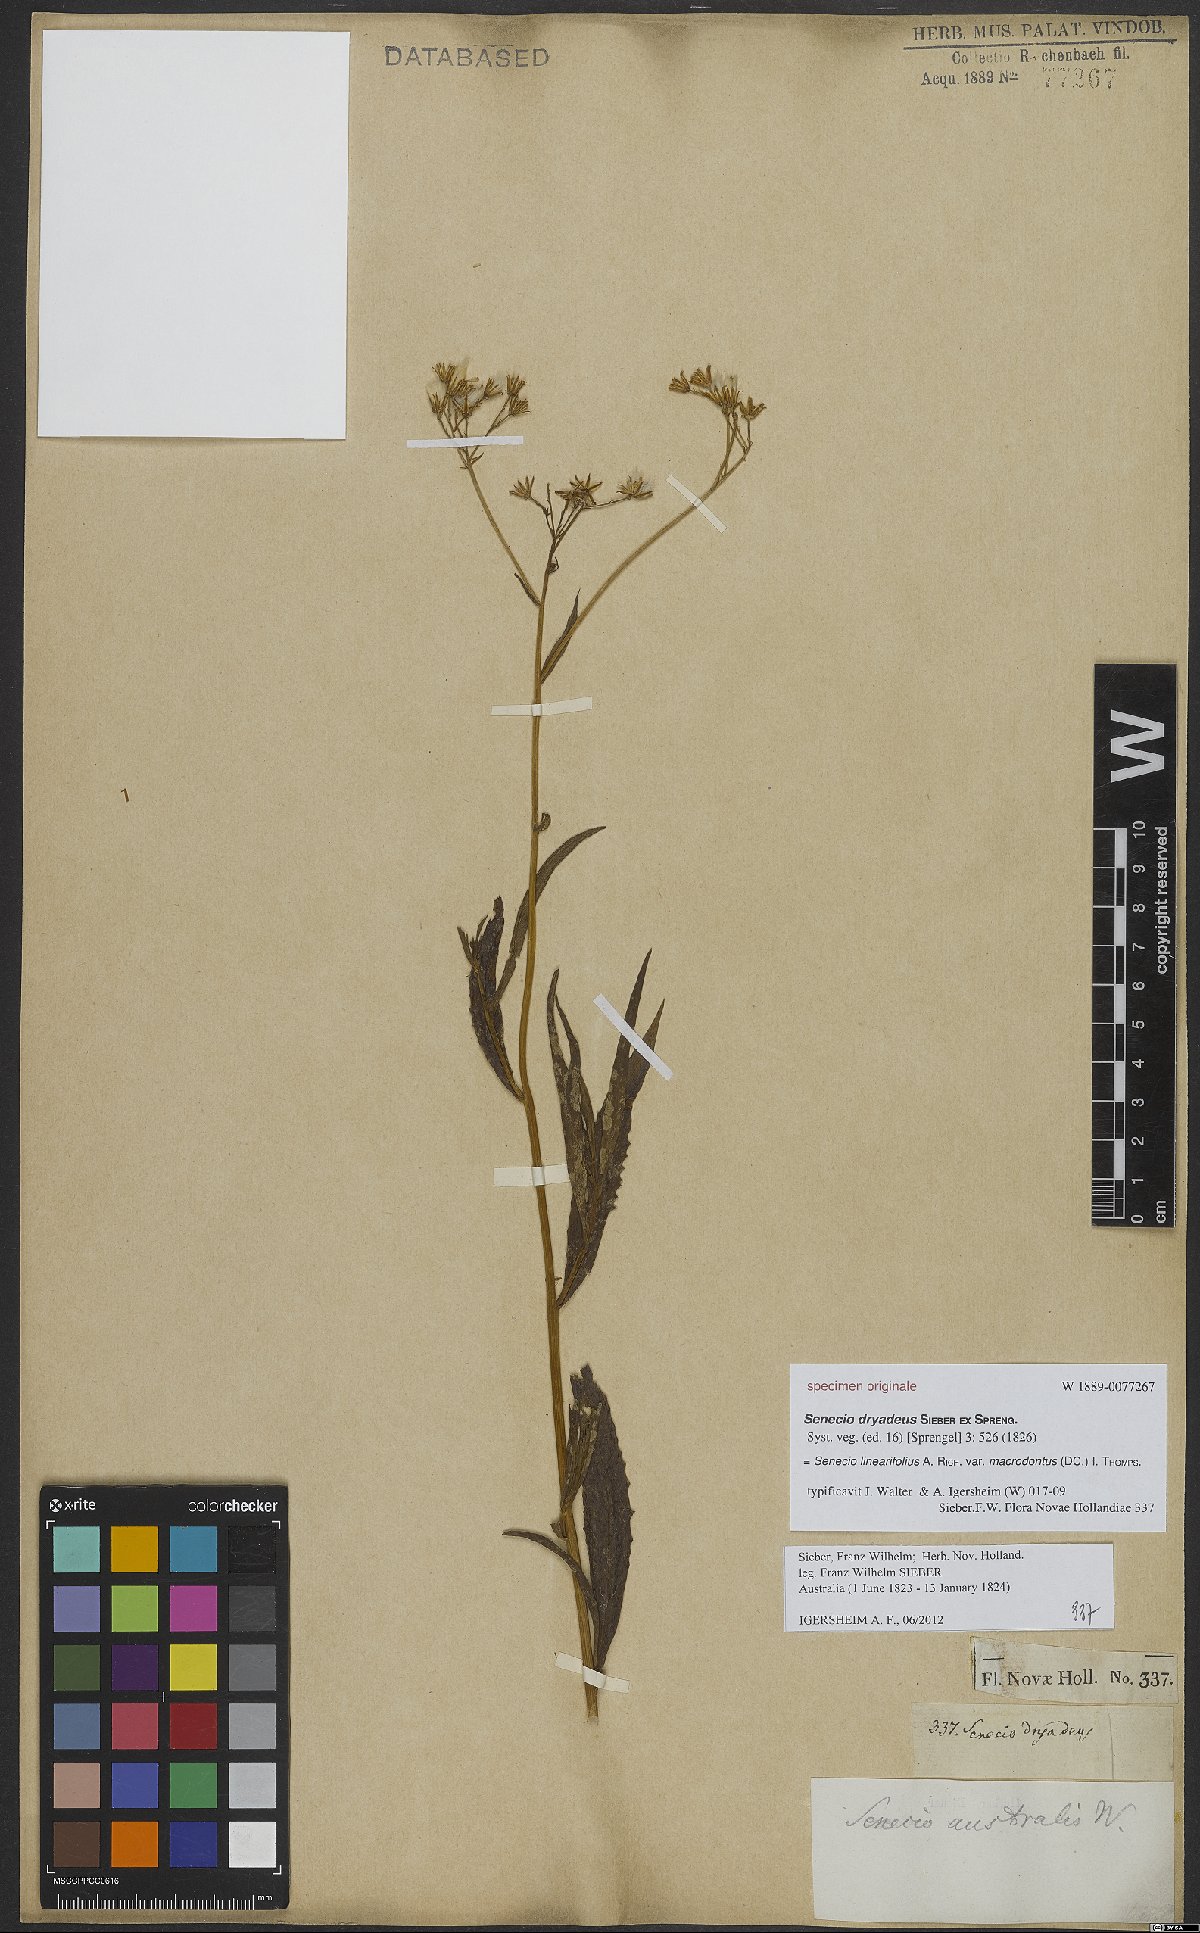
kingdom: Plantae
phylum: Tracheophyta
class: Magnoliopsida
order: Asterales
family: Asteraceae
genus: Senecio
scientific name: Senecio linearifolius
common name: Fireweed groundsel
